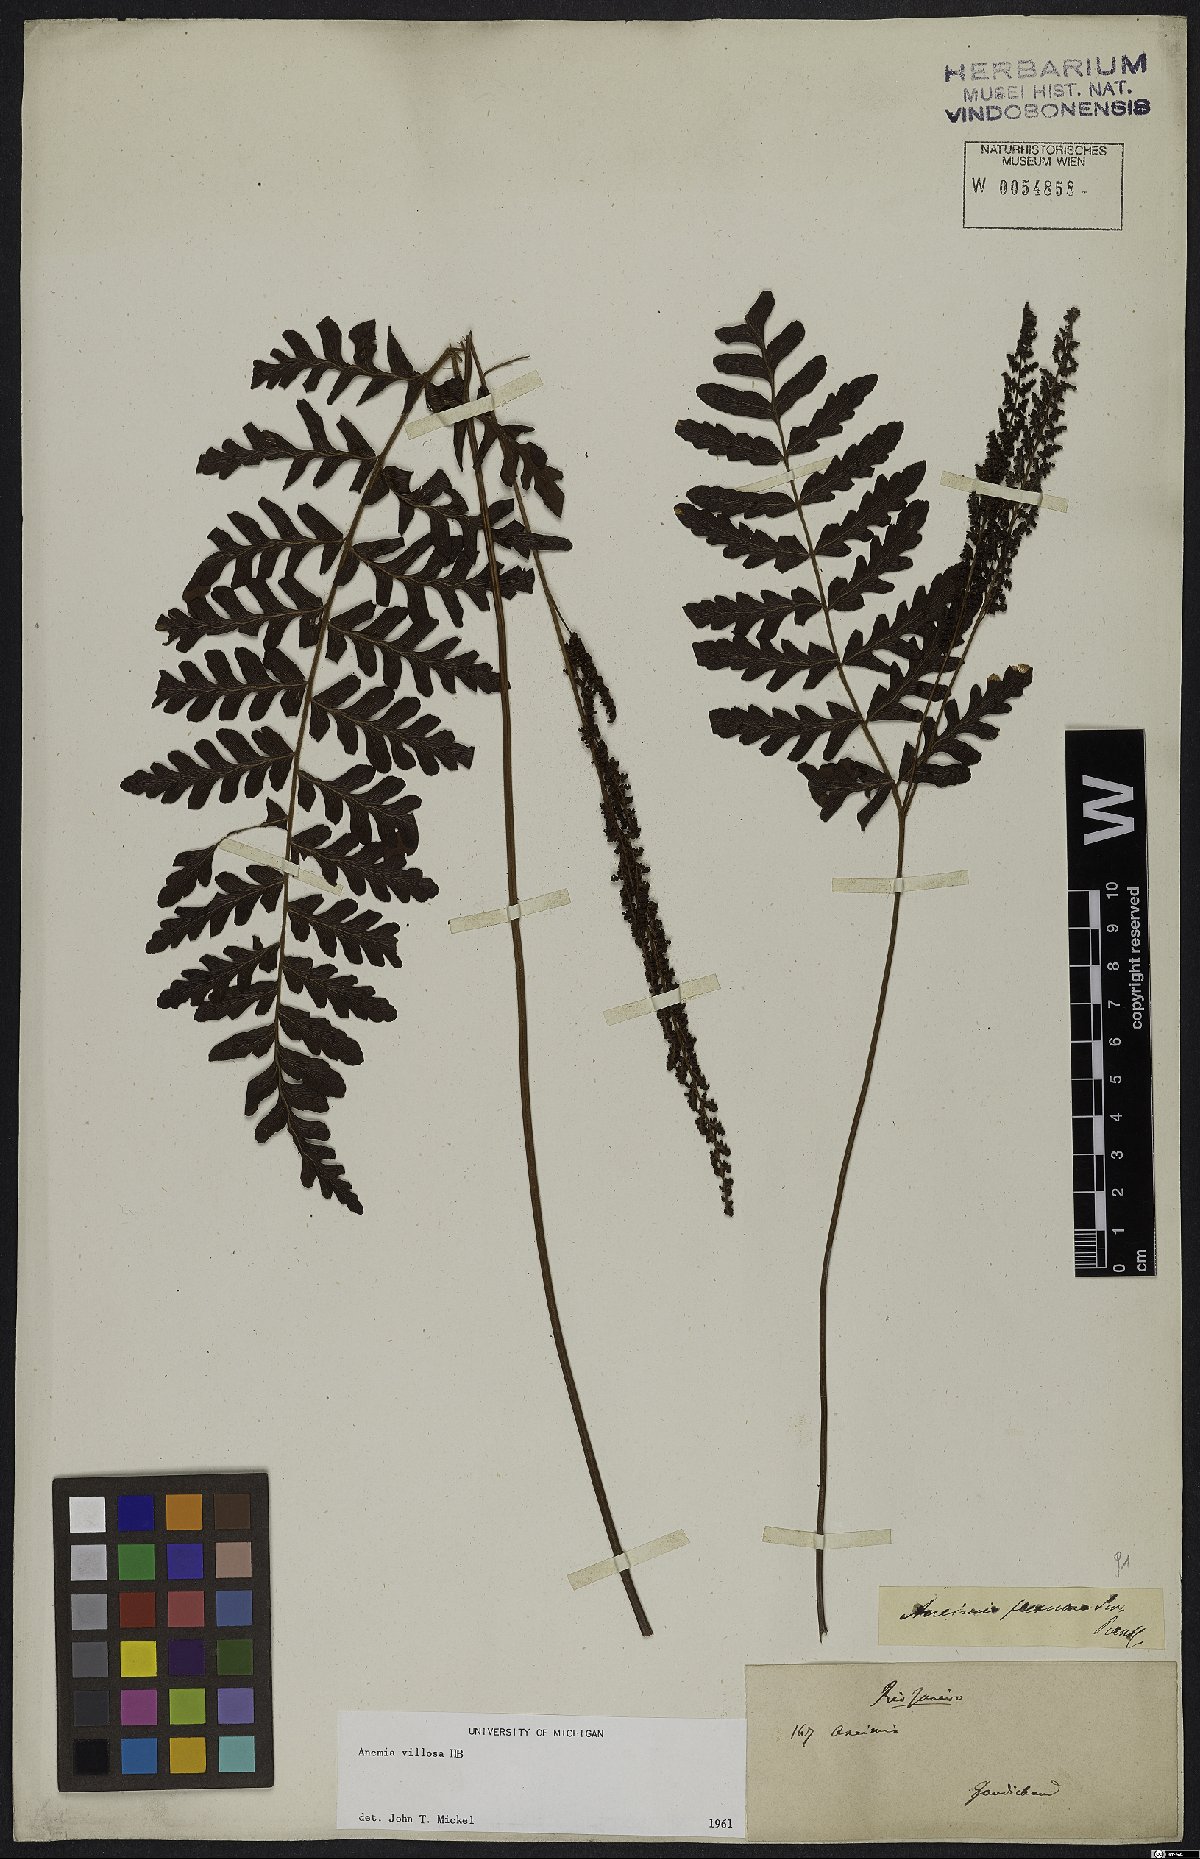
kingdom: Plantae
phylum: Tracheophyta
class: Polypodiopsida
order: Schizaeales
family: Anemiaceae
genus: Anemia
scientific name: Anemia villosa
